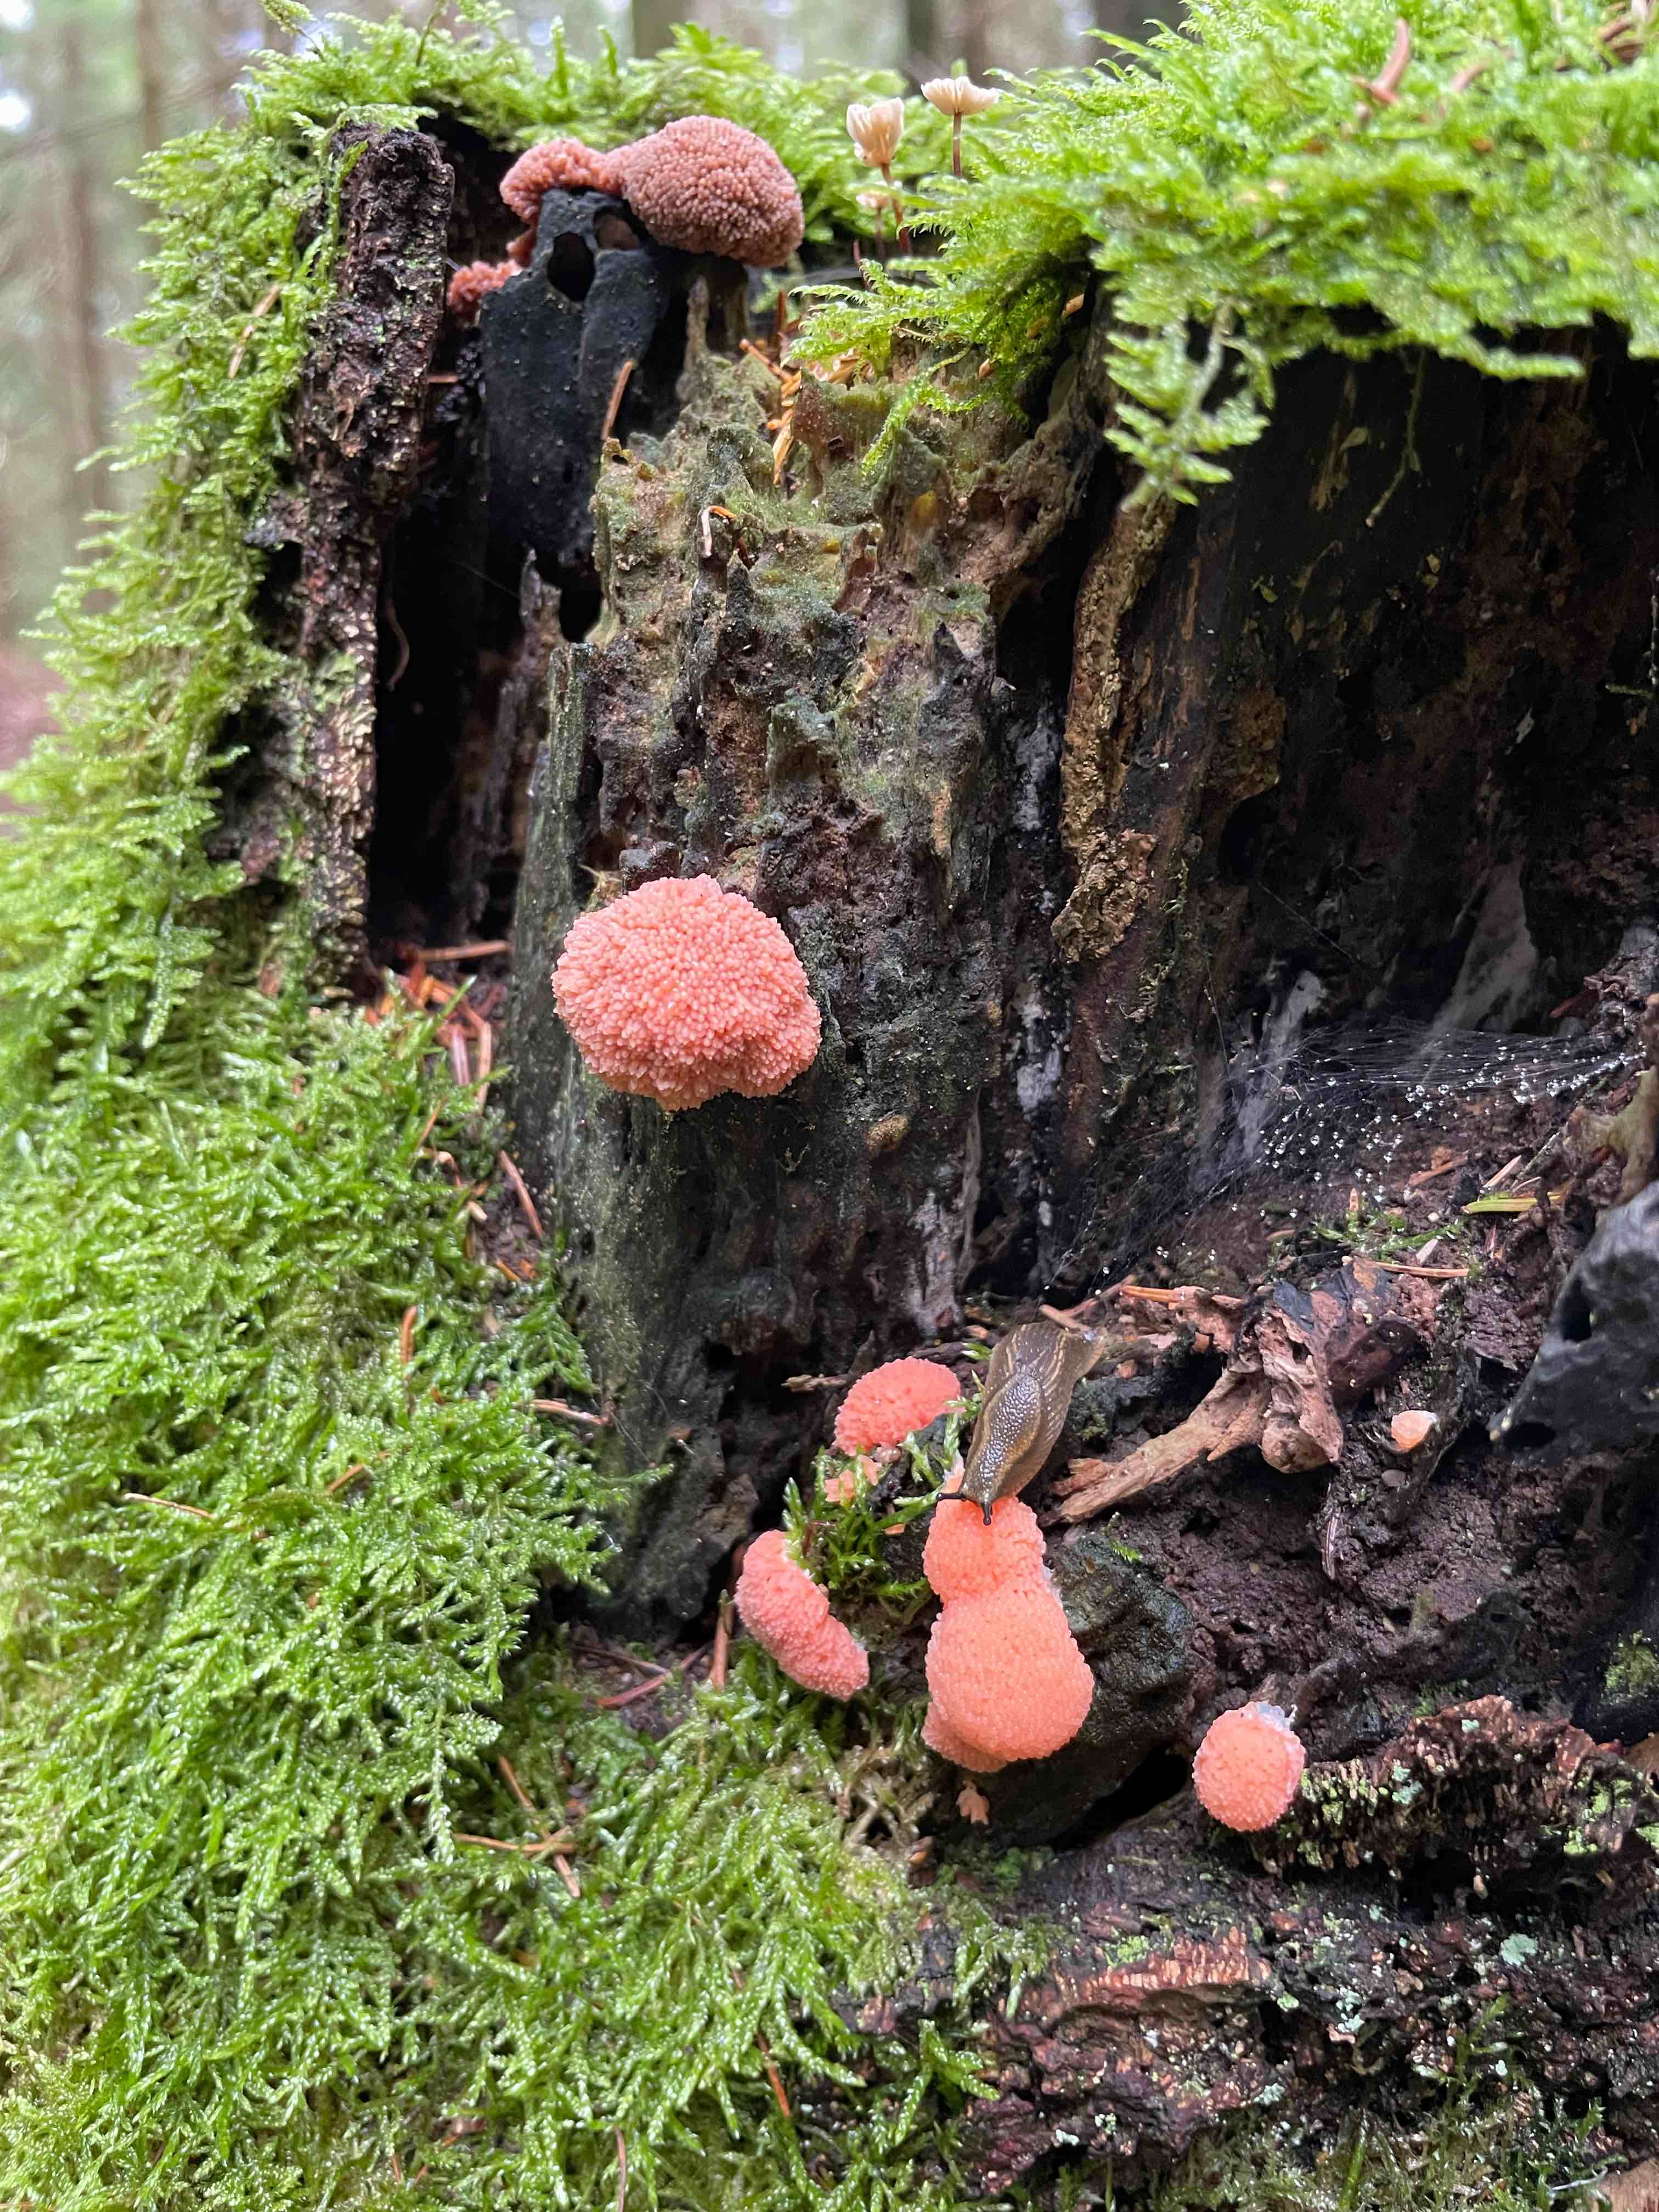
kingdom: Protozoa
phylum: Mycetozoa
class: Myxomycetes
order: Cribrariales
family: Tubiferaceae
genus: Tubifera
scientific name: Tubifera ferruginosa
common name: kanel-støvrør
